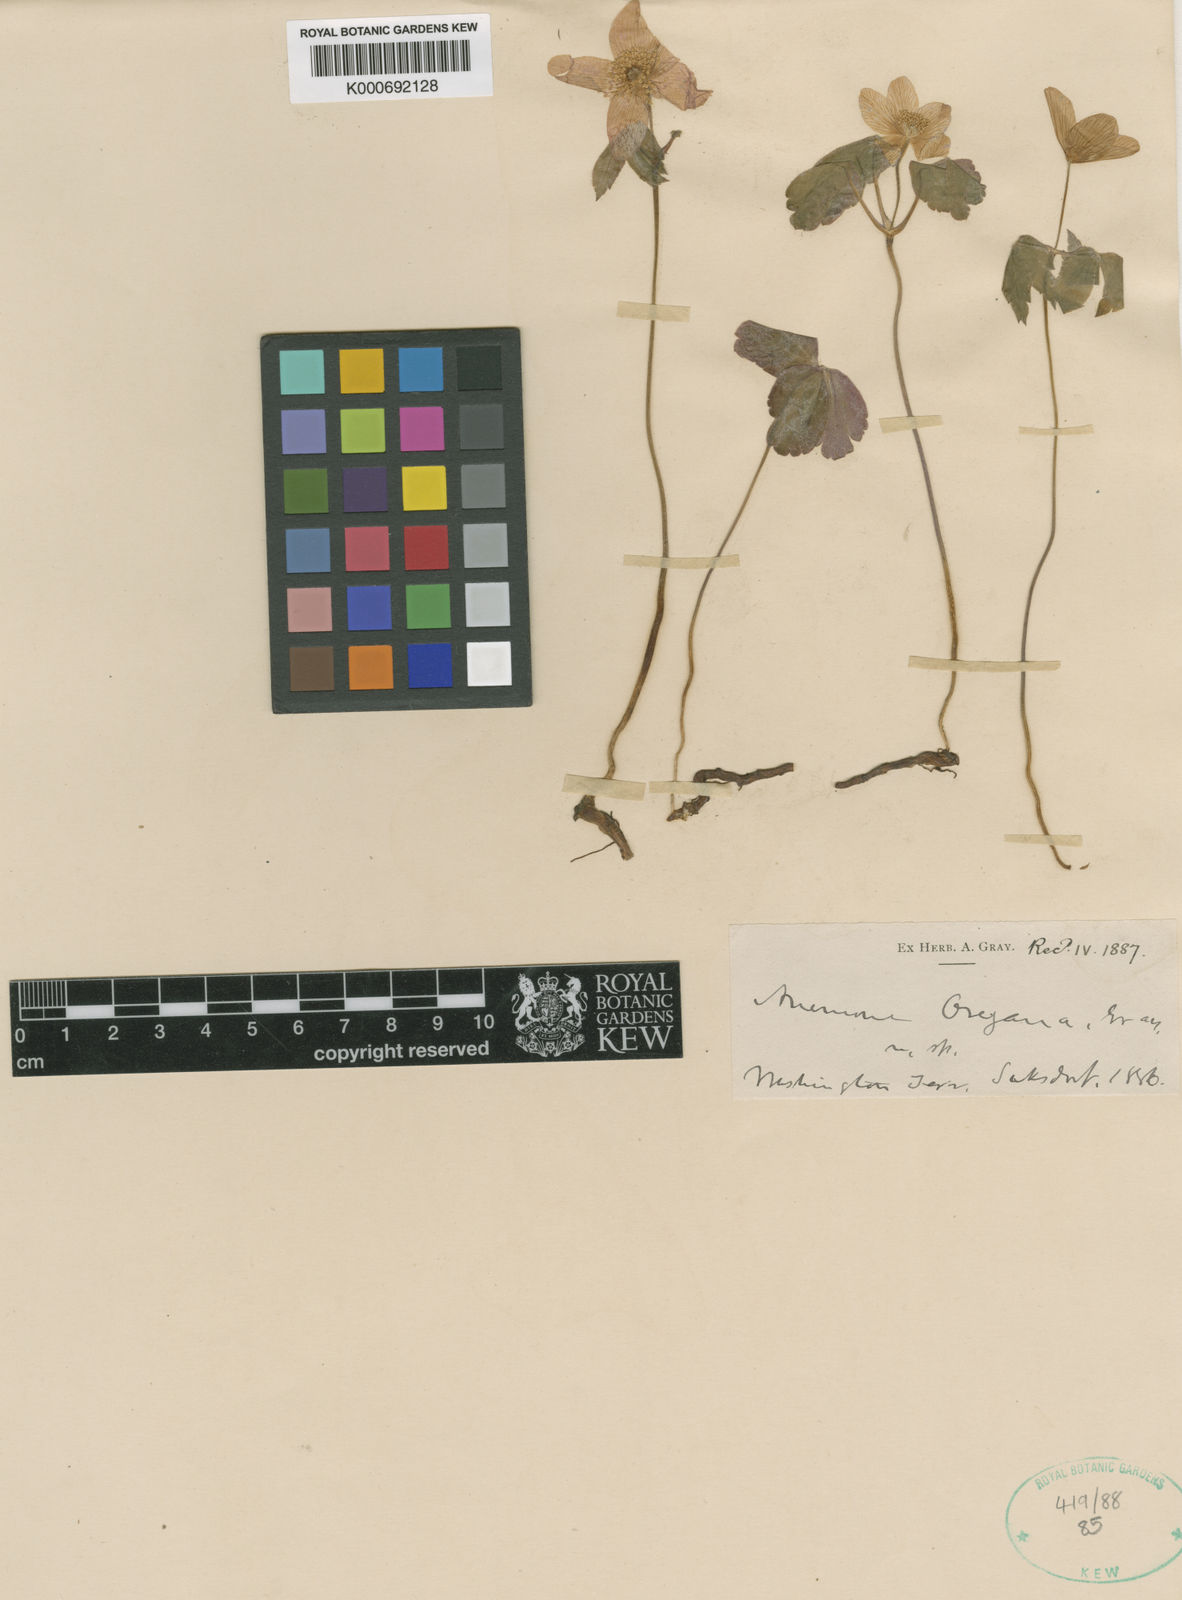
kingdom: Plantae
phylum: Tracheophyta
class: Magnoliopsida
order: Ranunculales
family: Ranunculaceae
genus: Anemone
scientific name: Anemone
